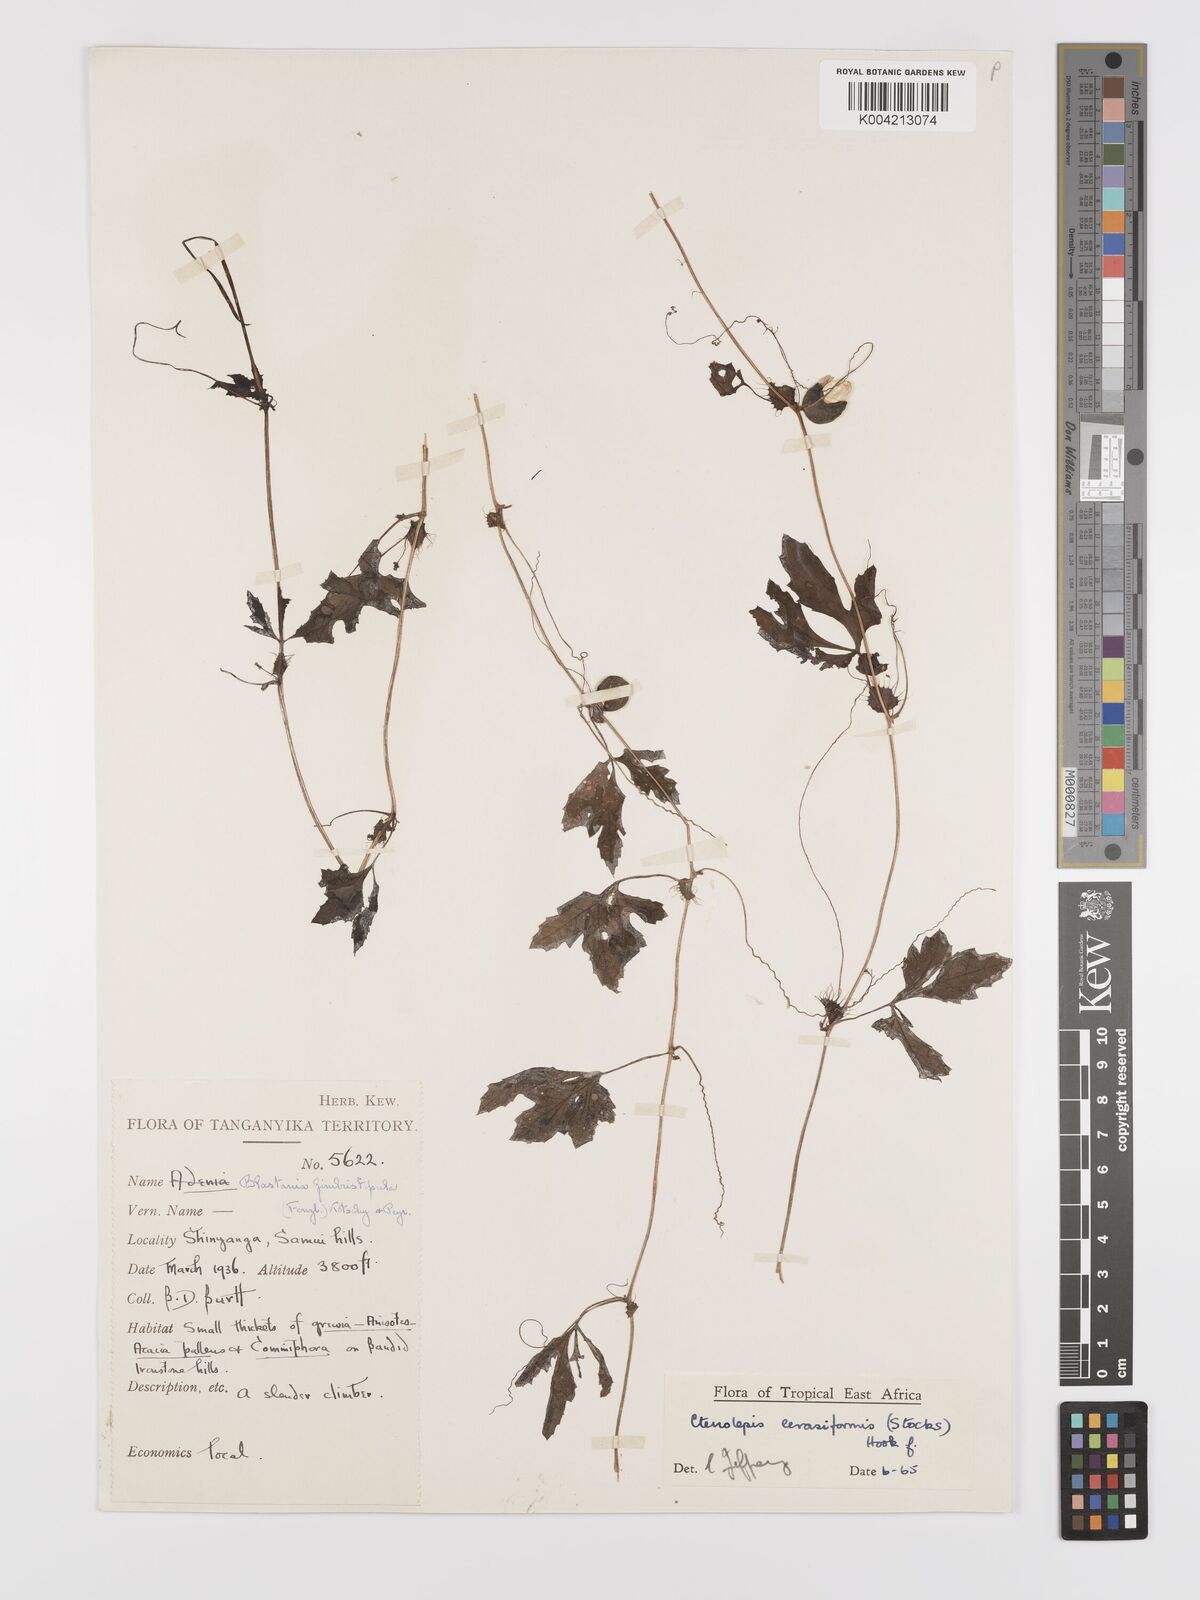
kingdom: Plantae
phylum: Tracheophyta
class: Magnoliopsida
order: Cucurbitales
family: Cucurbitaceae
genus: Blastania
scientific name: Blastania
